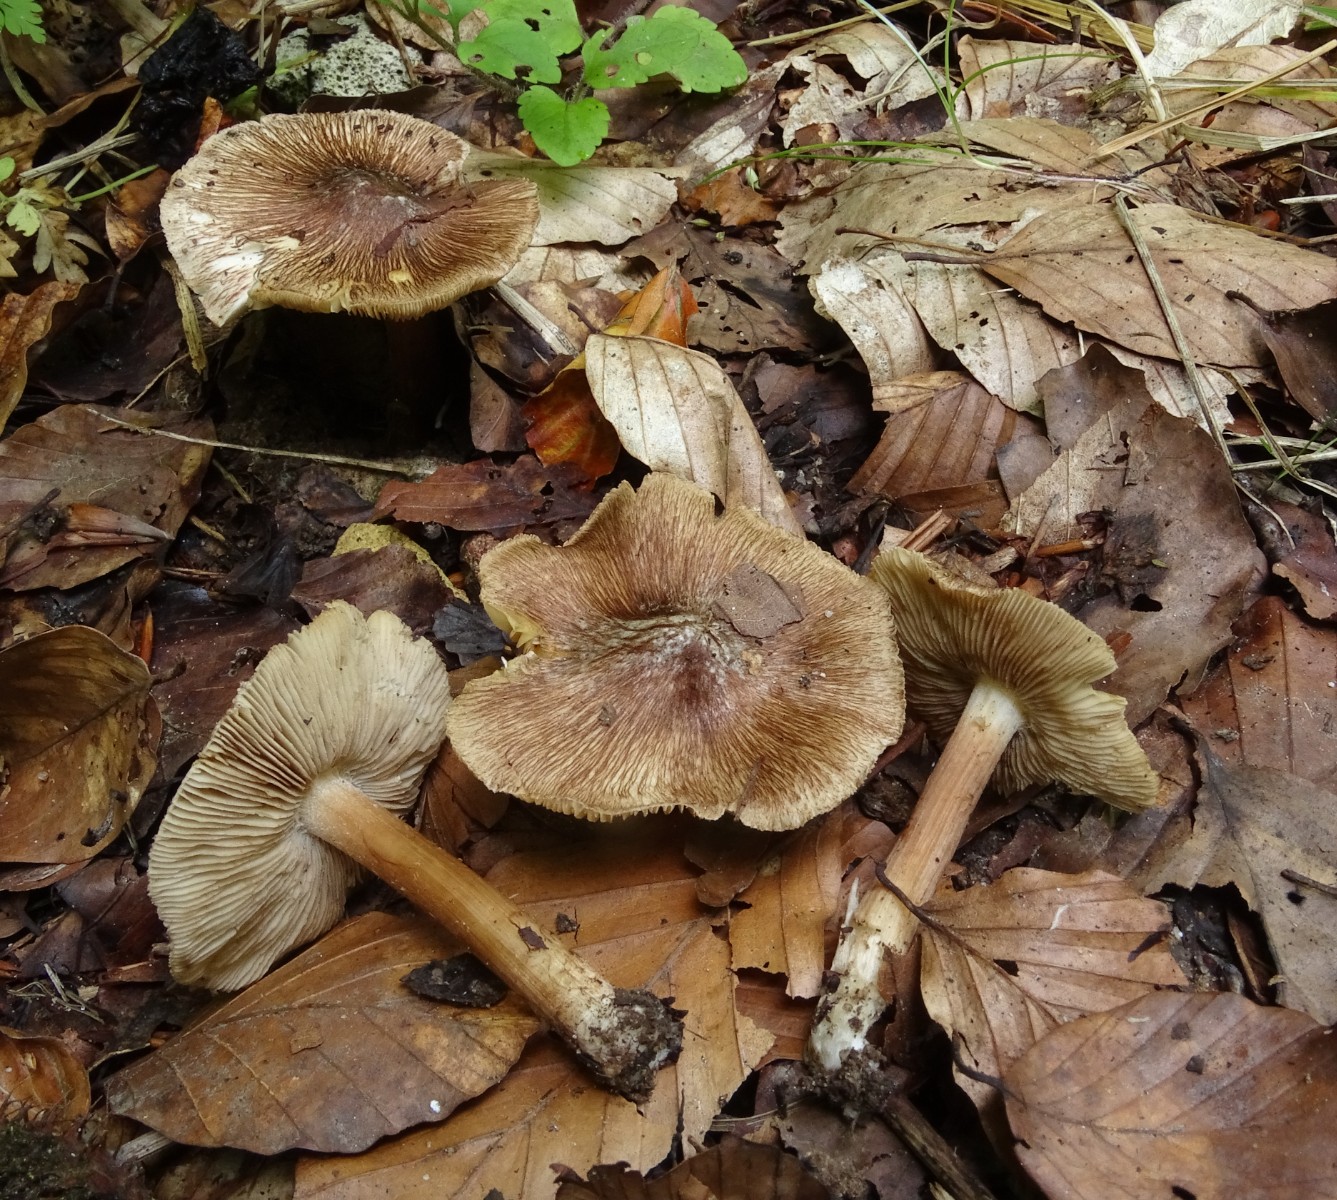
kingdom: Fungi
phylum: Basidiomycota
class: Agaricomycetes
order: Agaricales
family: Inocybaceae
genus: Inosperma
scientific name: Inosperma
